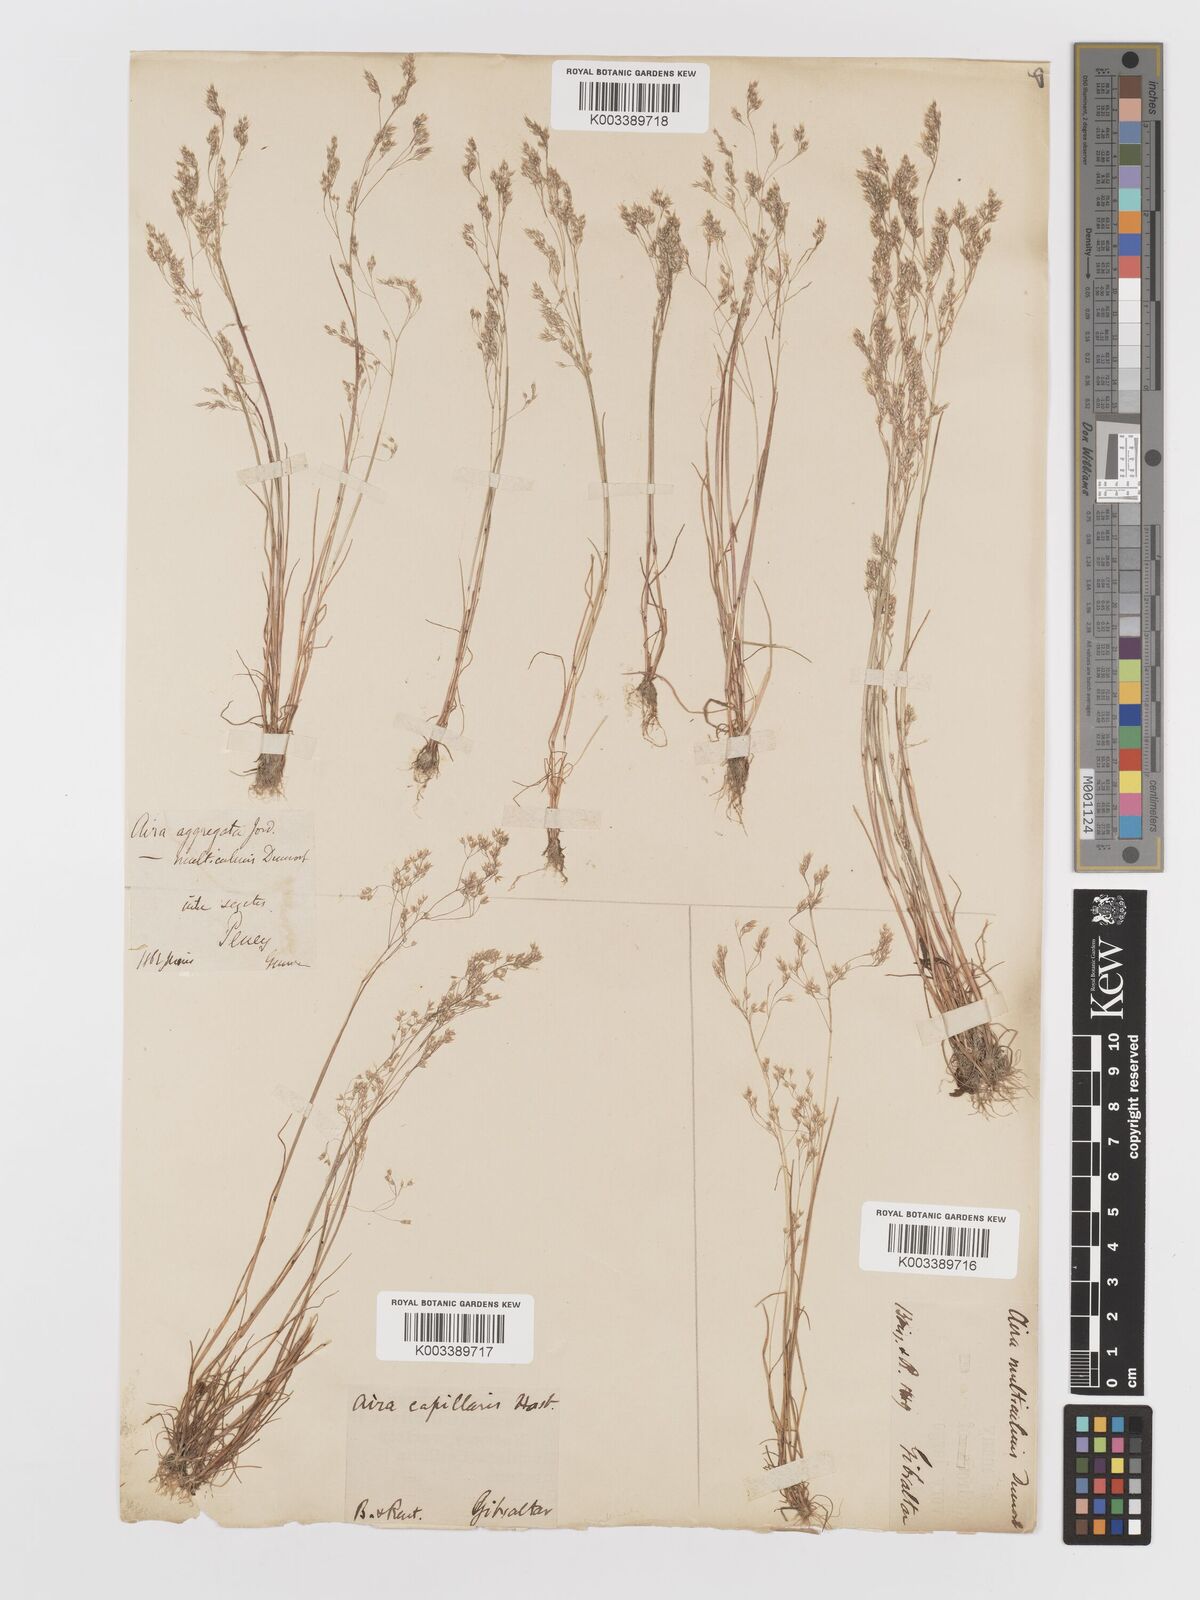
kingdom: Plantae
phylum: Tracheophyta
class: Liliopsida
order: Poales
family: Poaceae
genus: Aira
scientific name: Aira caryophyllea
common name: Silver hairgrass
